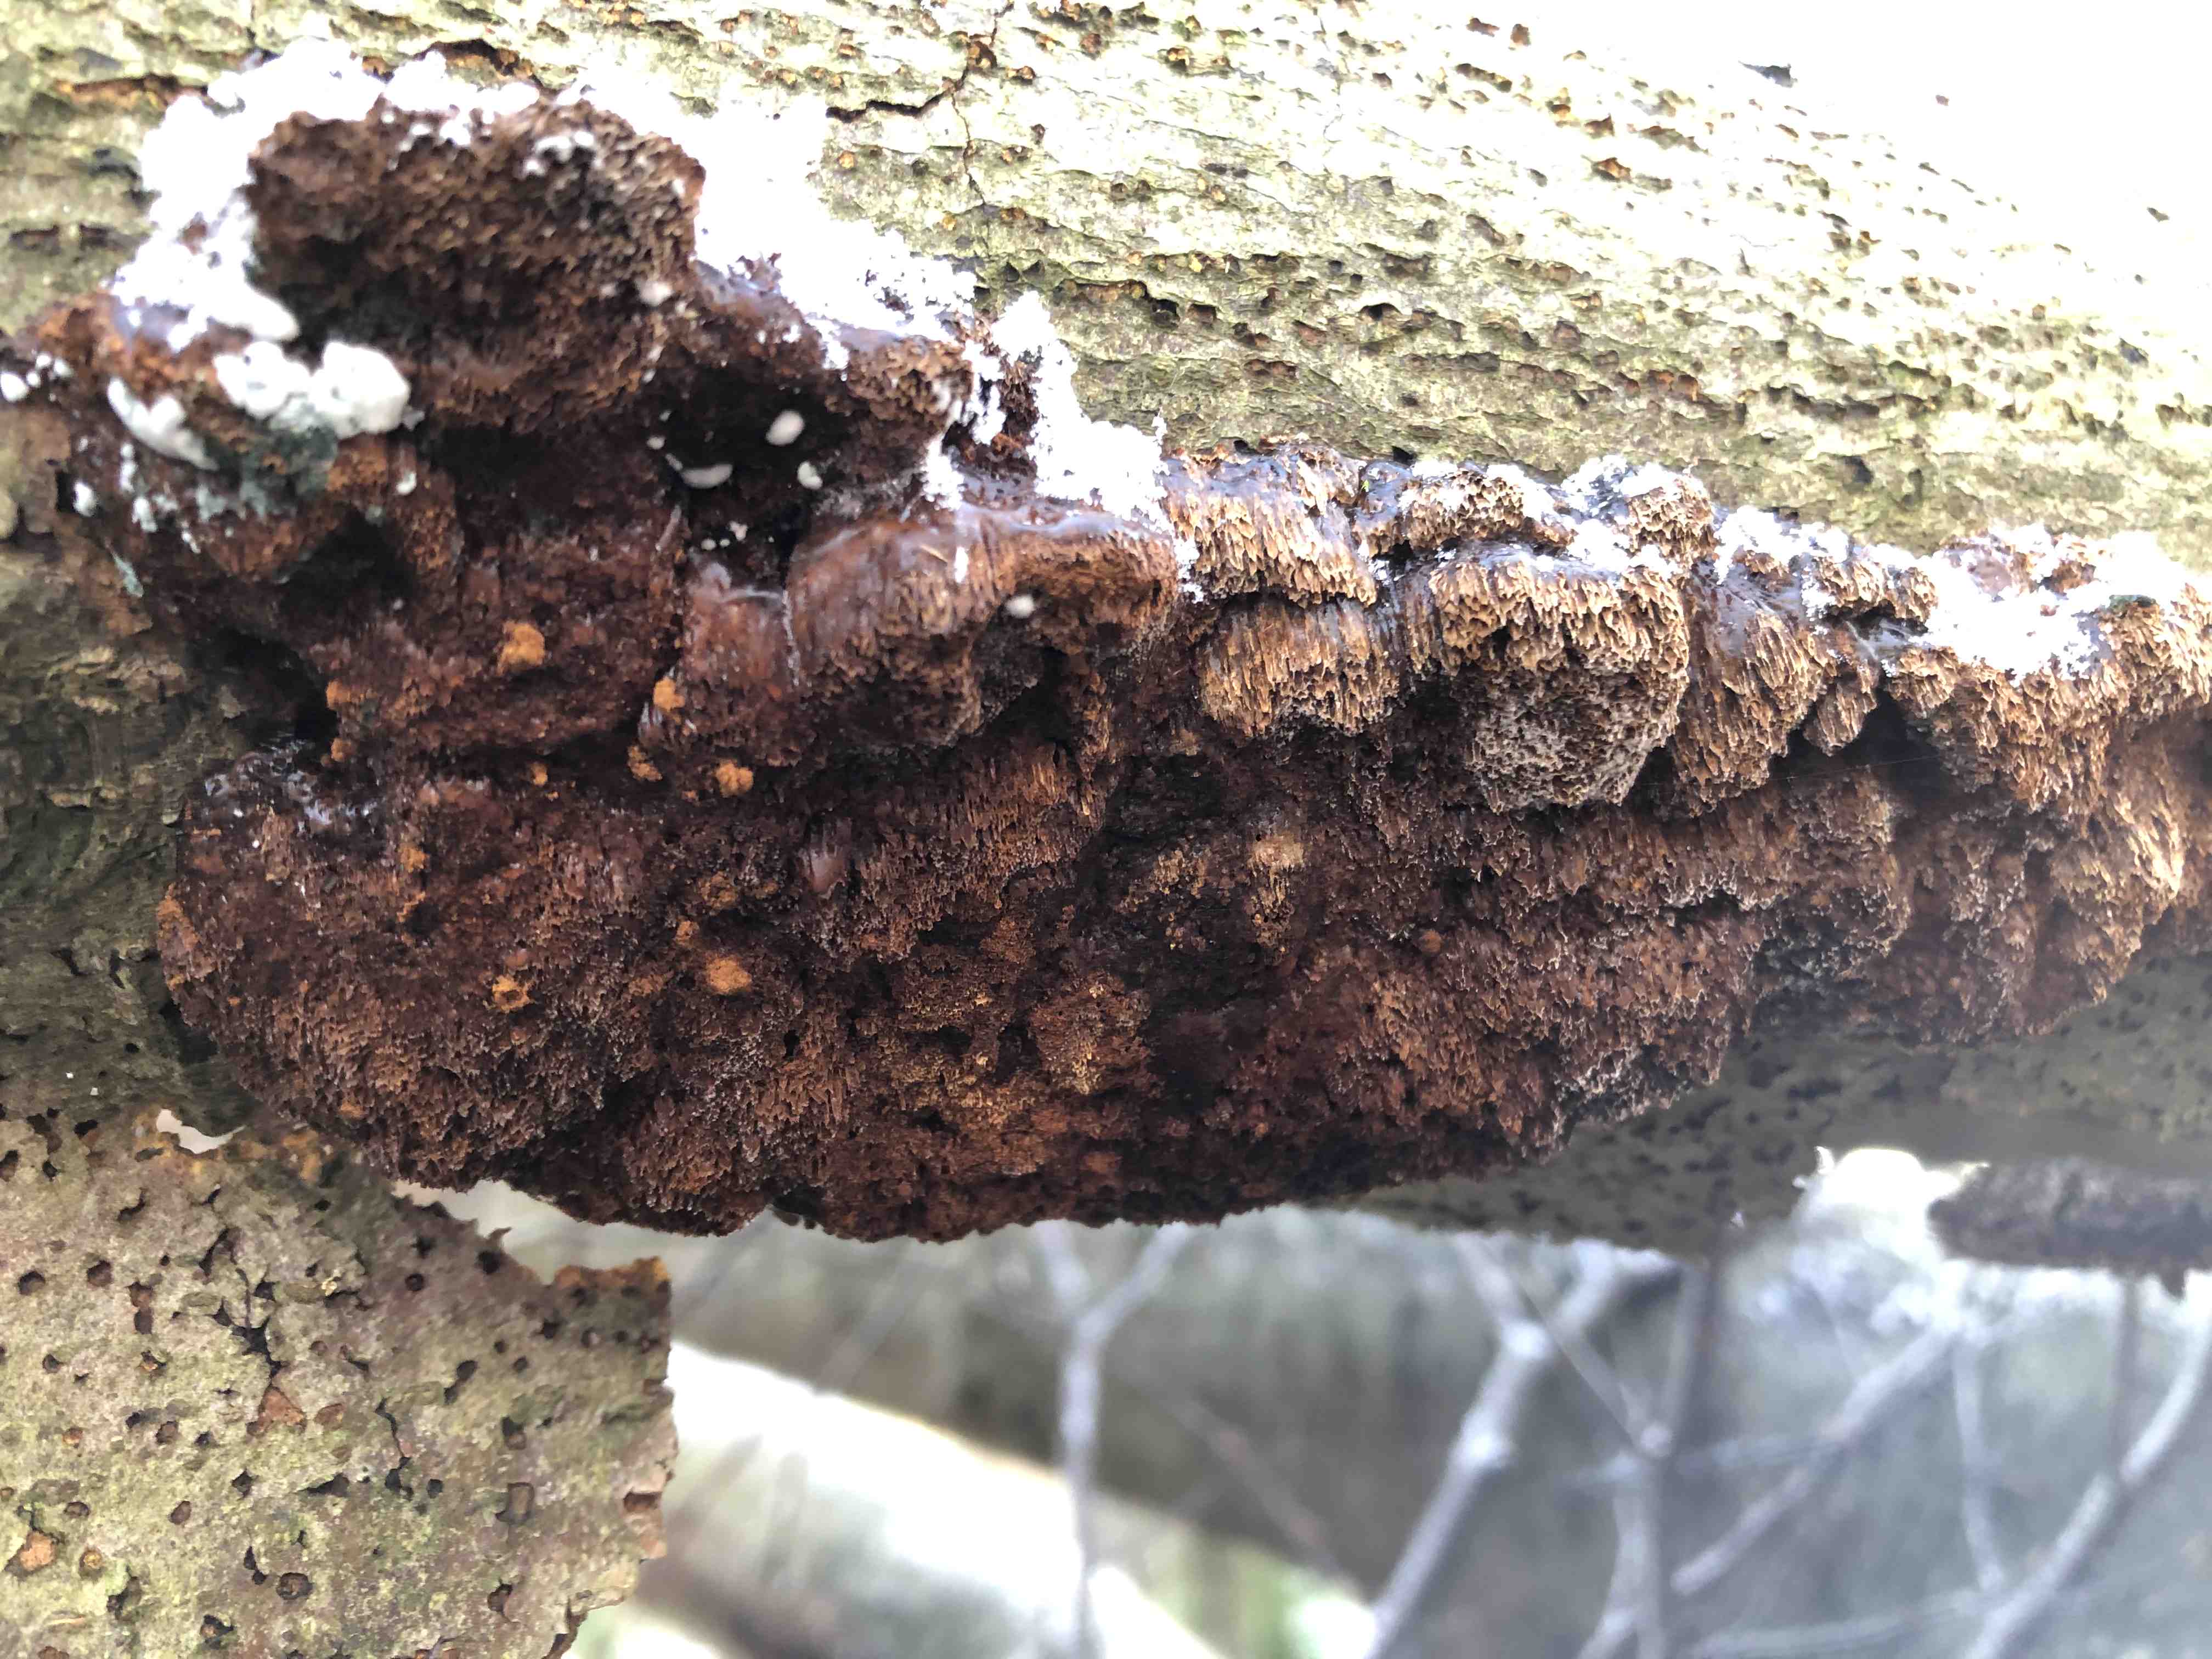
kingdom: Fungi
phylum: Basidiomycota
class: Agaricomycetes
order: Hymenochaetales
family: Hymenochaetaceae
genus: Mensularia
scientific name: Mensularia nodulosa
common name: bøge-spejlporesvamp
